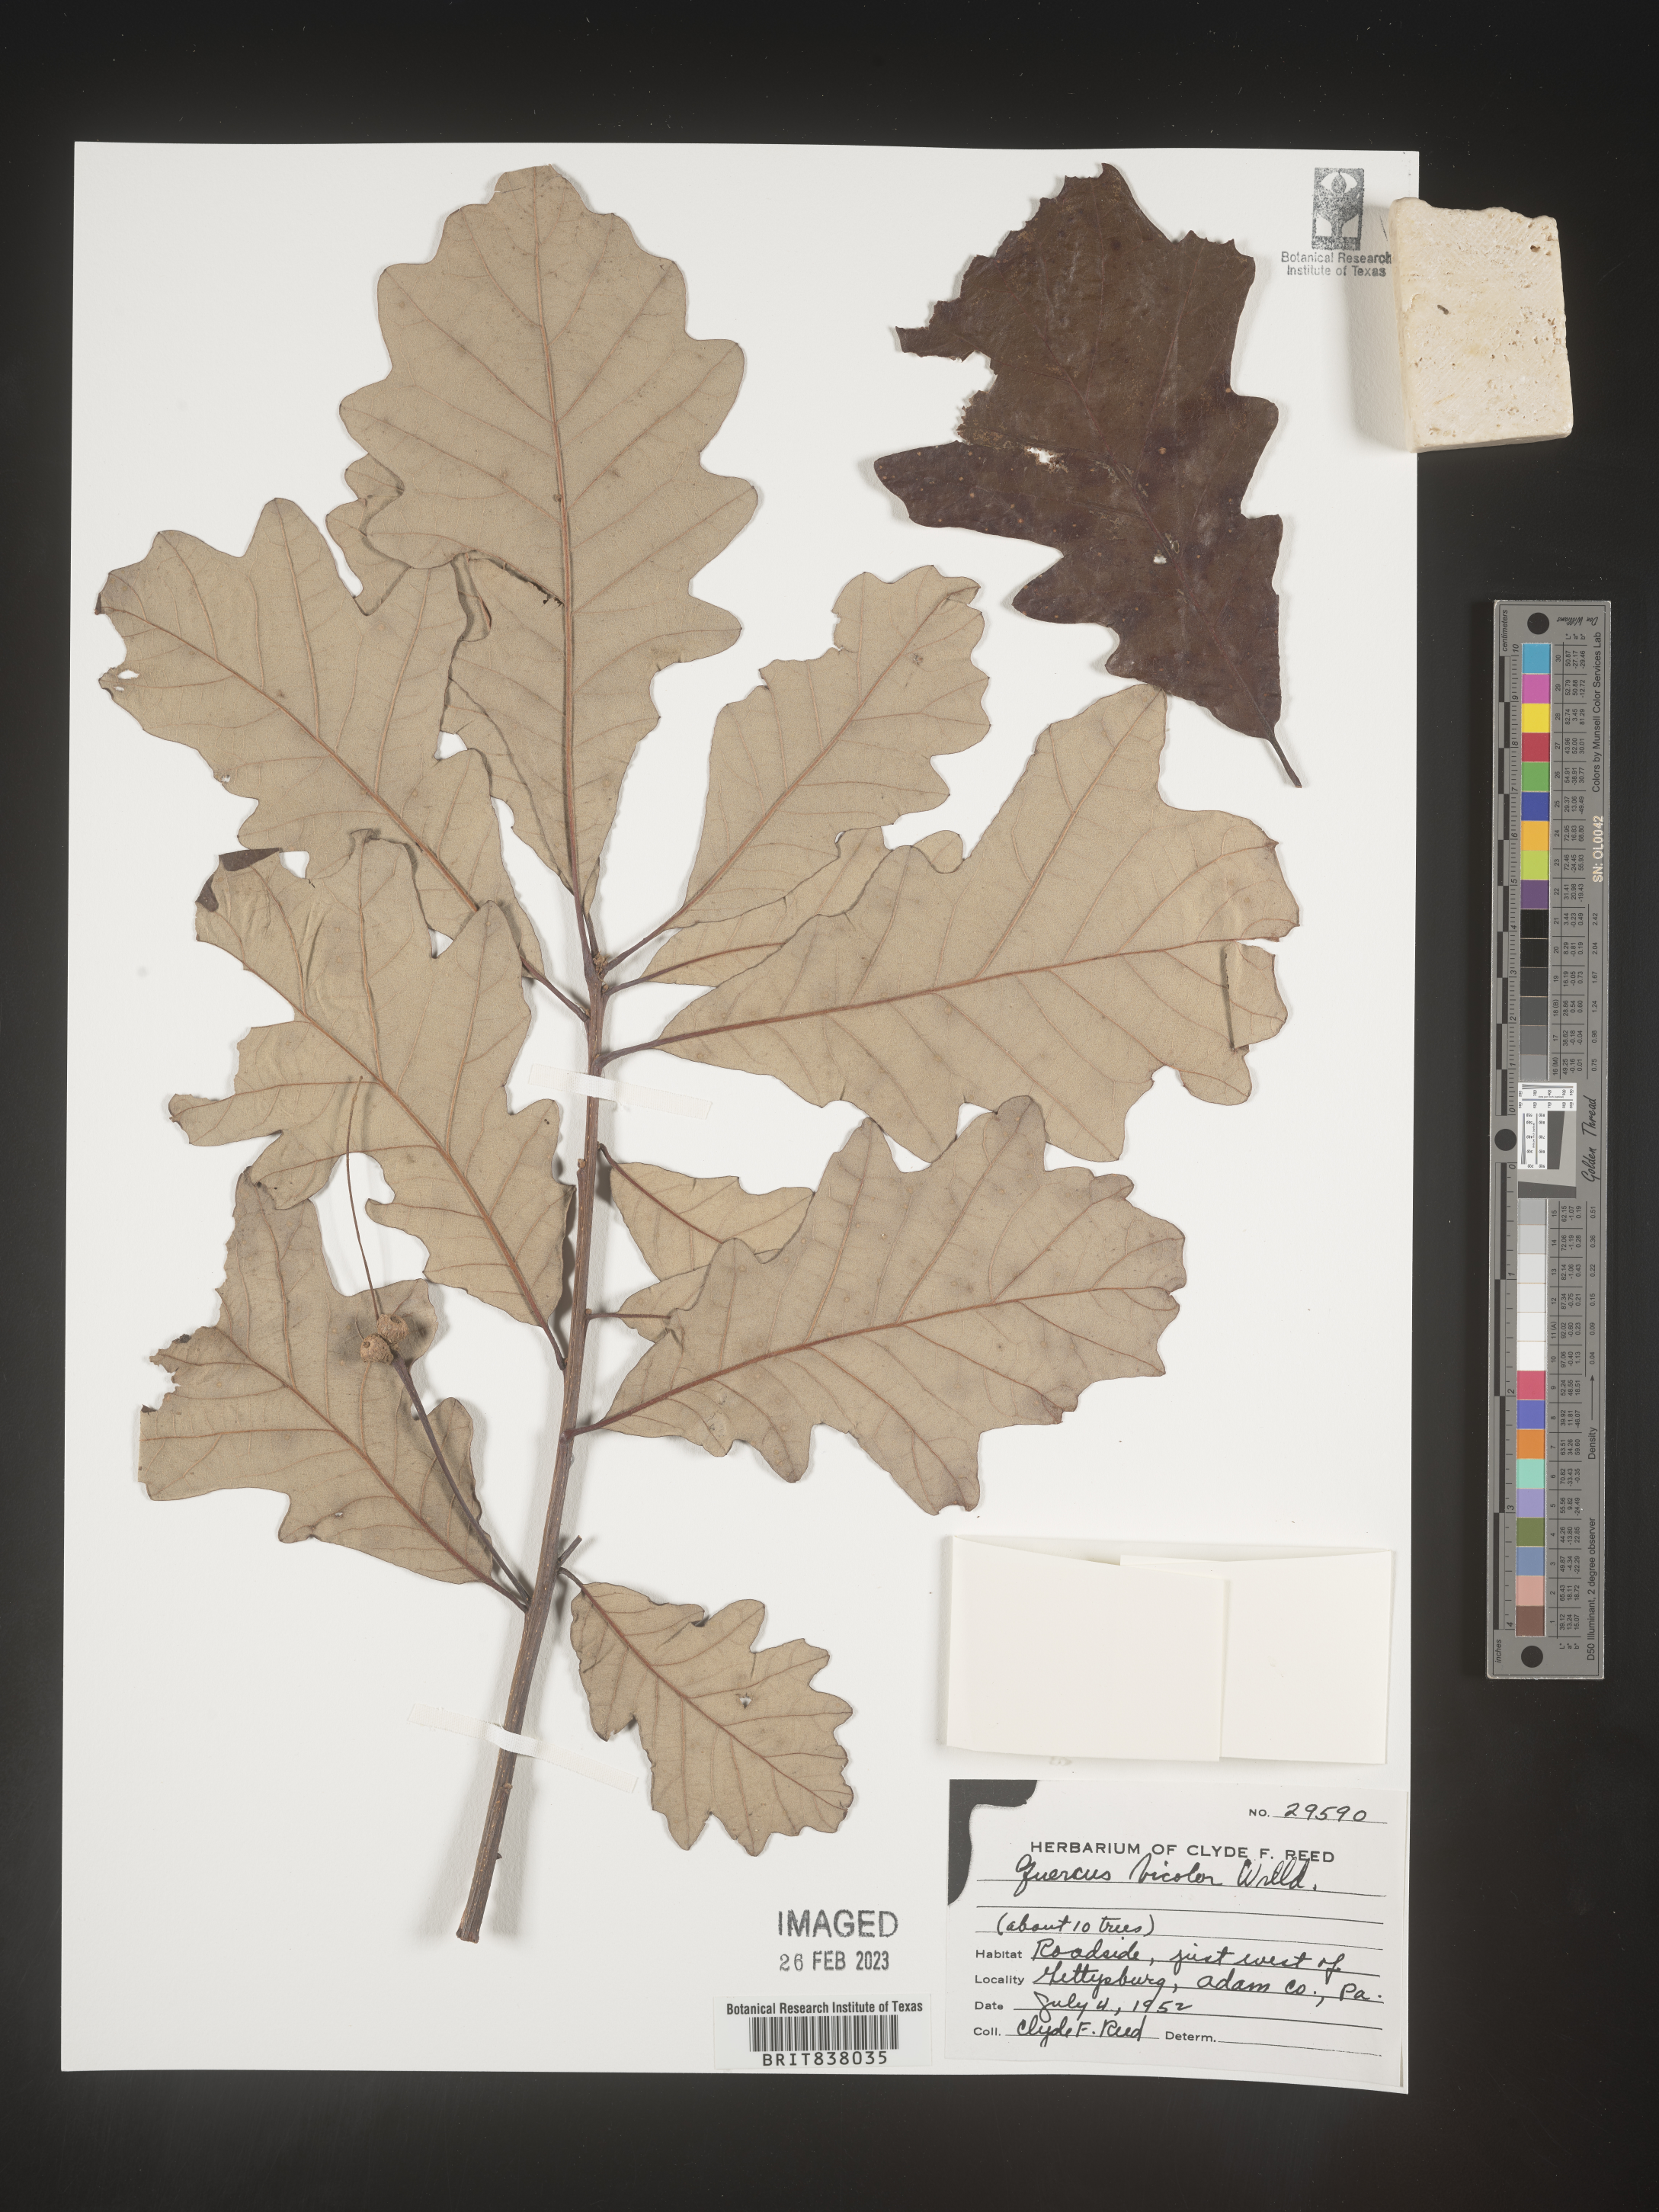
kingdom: Plantae
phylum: Tracheophyta
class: Magnoliopsida
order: Fagales
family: Fagaceae
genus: Quercus
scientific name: Quercus bicolor
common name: Swamp white oak
